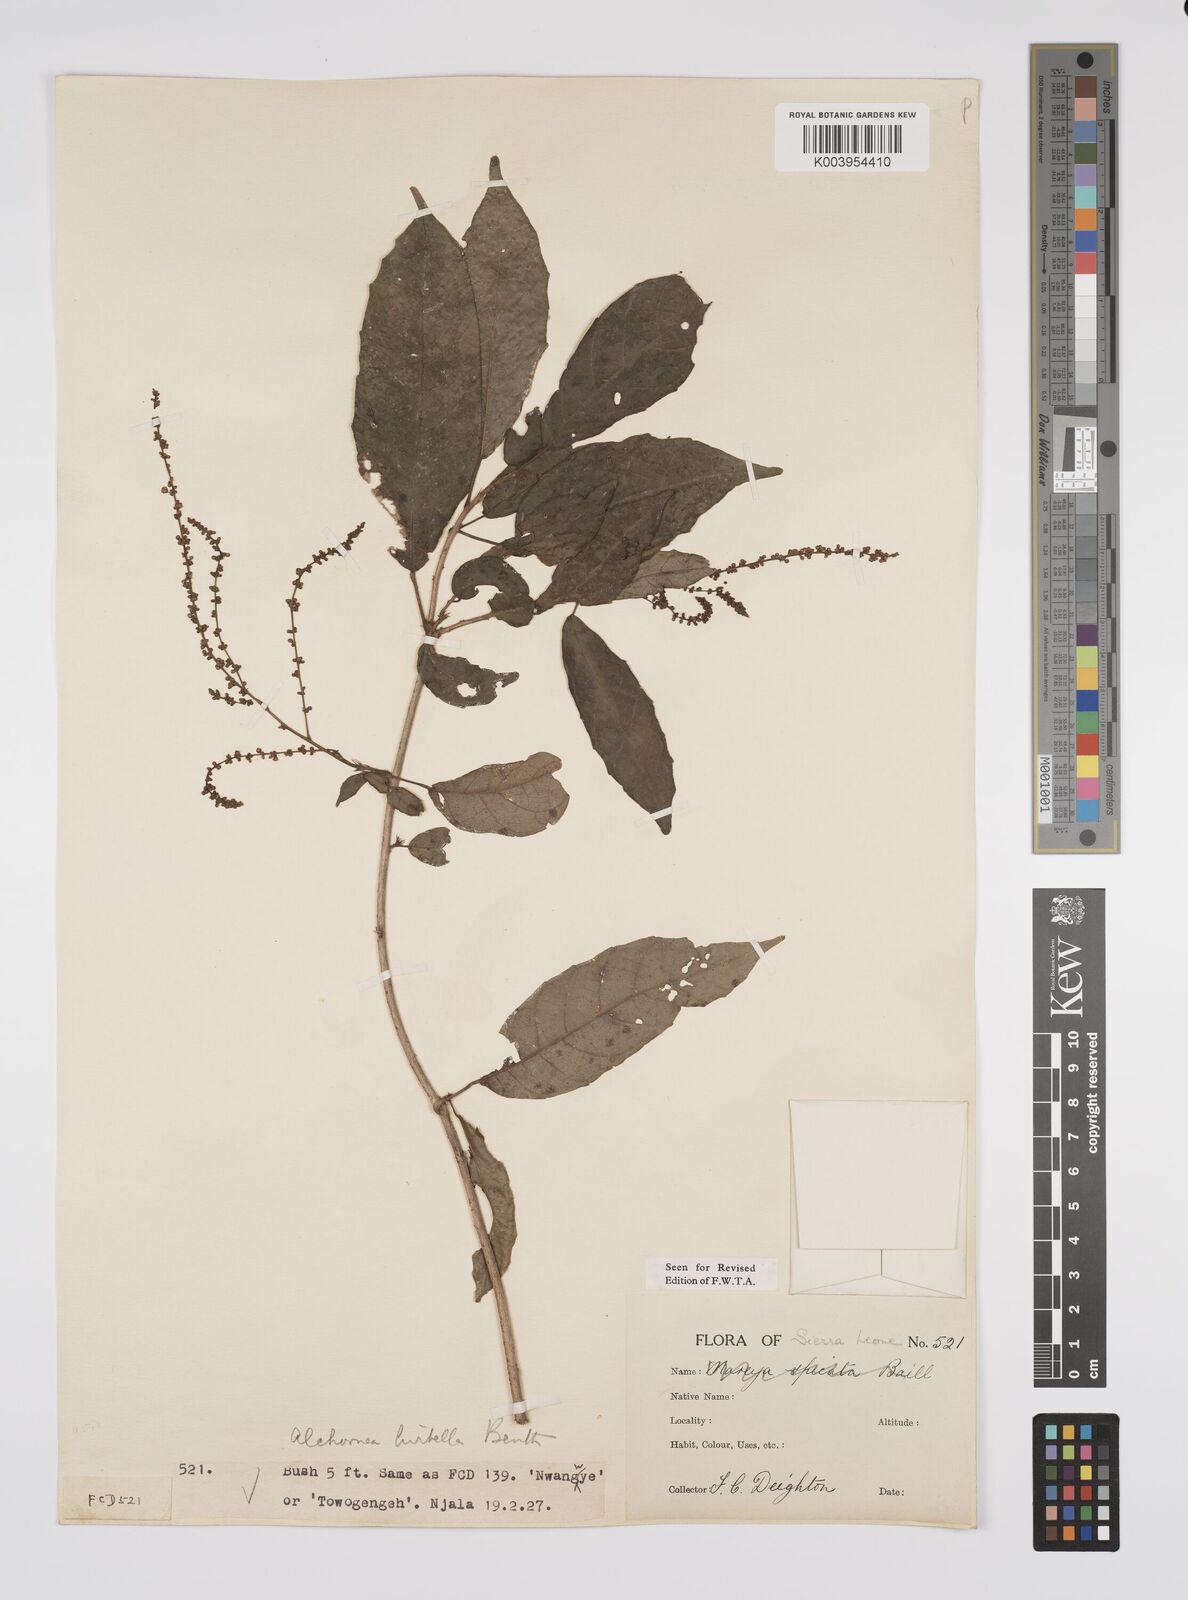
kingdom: Plantae
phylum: Tracheophyta
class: Magnoliopsida
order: Malpighiales
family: Euphorbiaceae
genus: Alchornea
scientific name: Alchornea hirtella
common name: Forest bead-string
